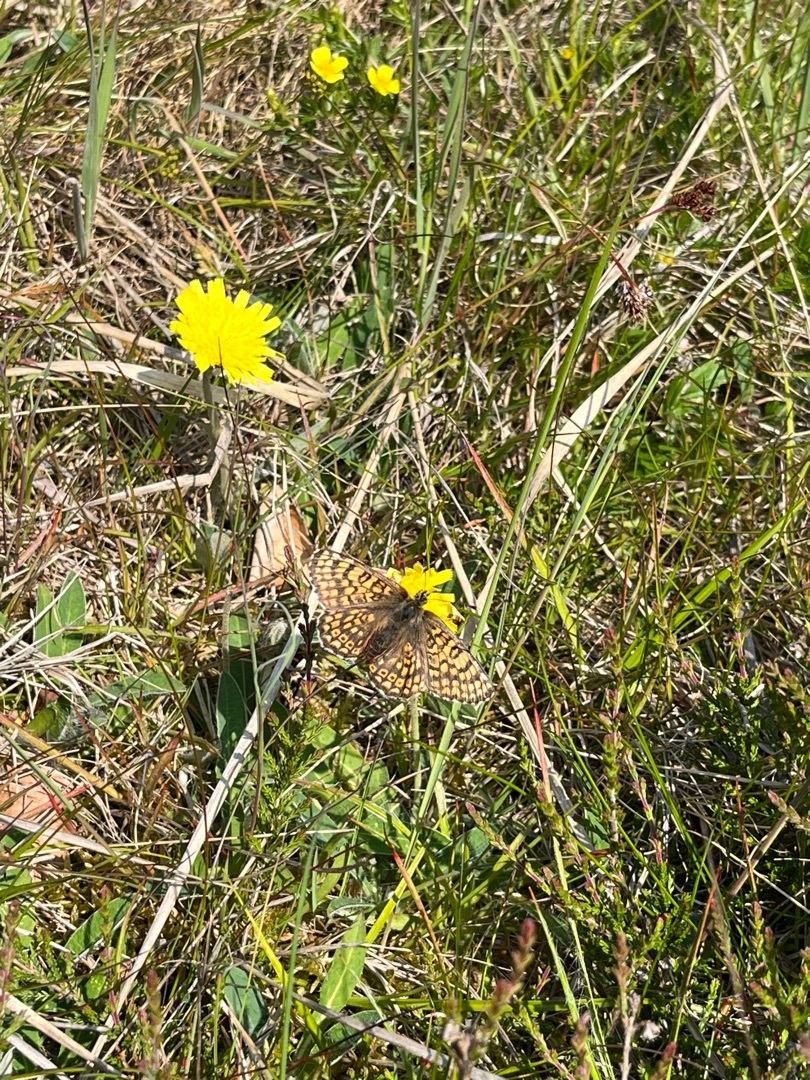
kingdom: Animalia
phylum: Arthropoda
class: Insecta
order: Lepidoptera
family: Nymphalidae
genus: Melitaea
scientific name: Melitaea cinxia
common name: Okkergul pletvinge
